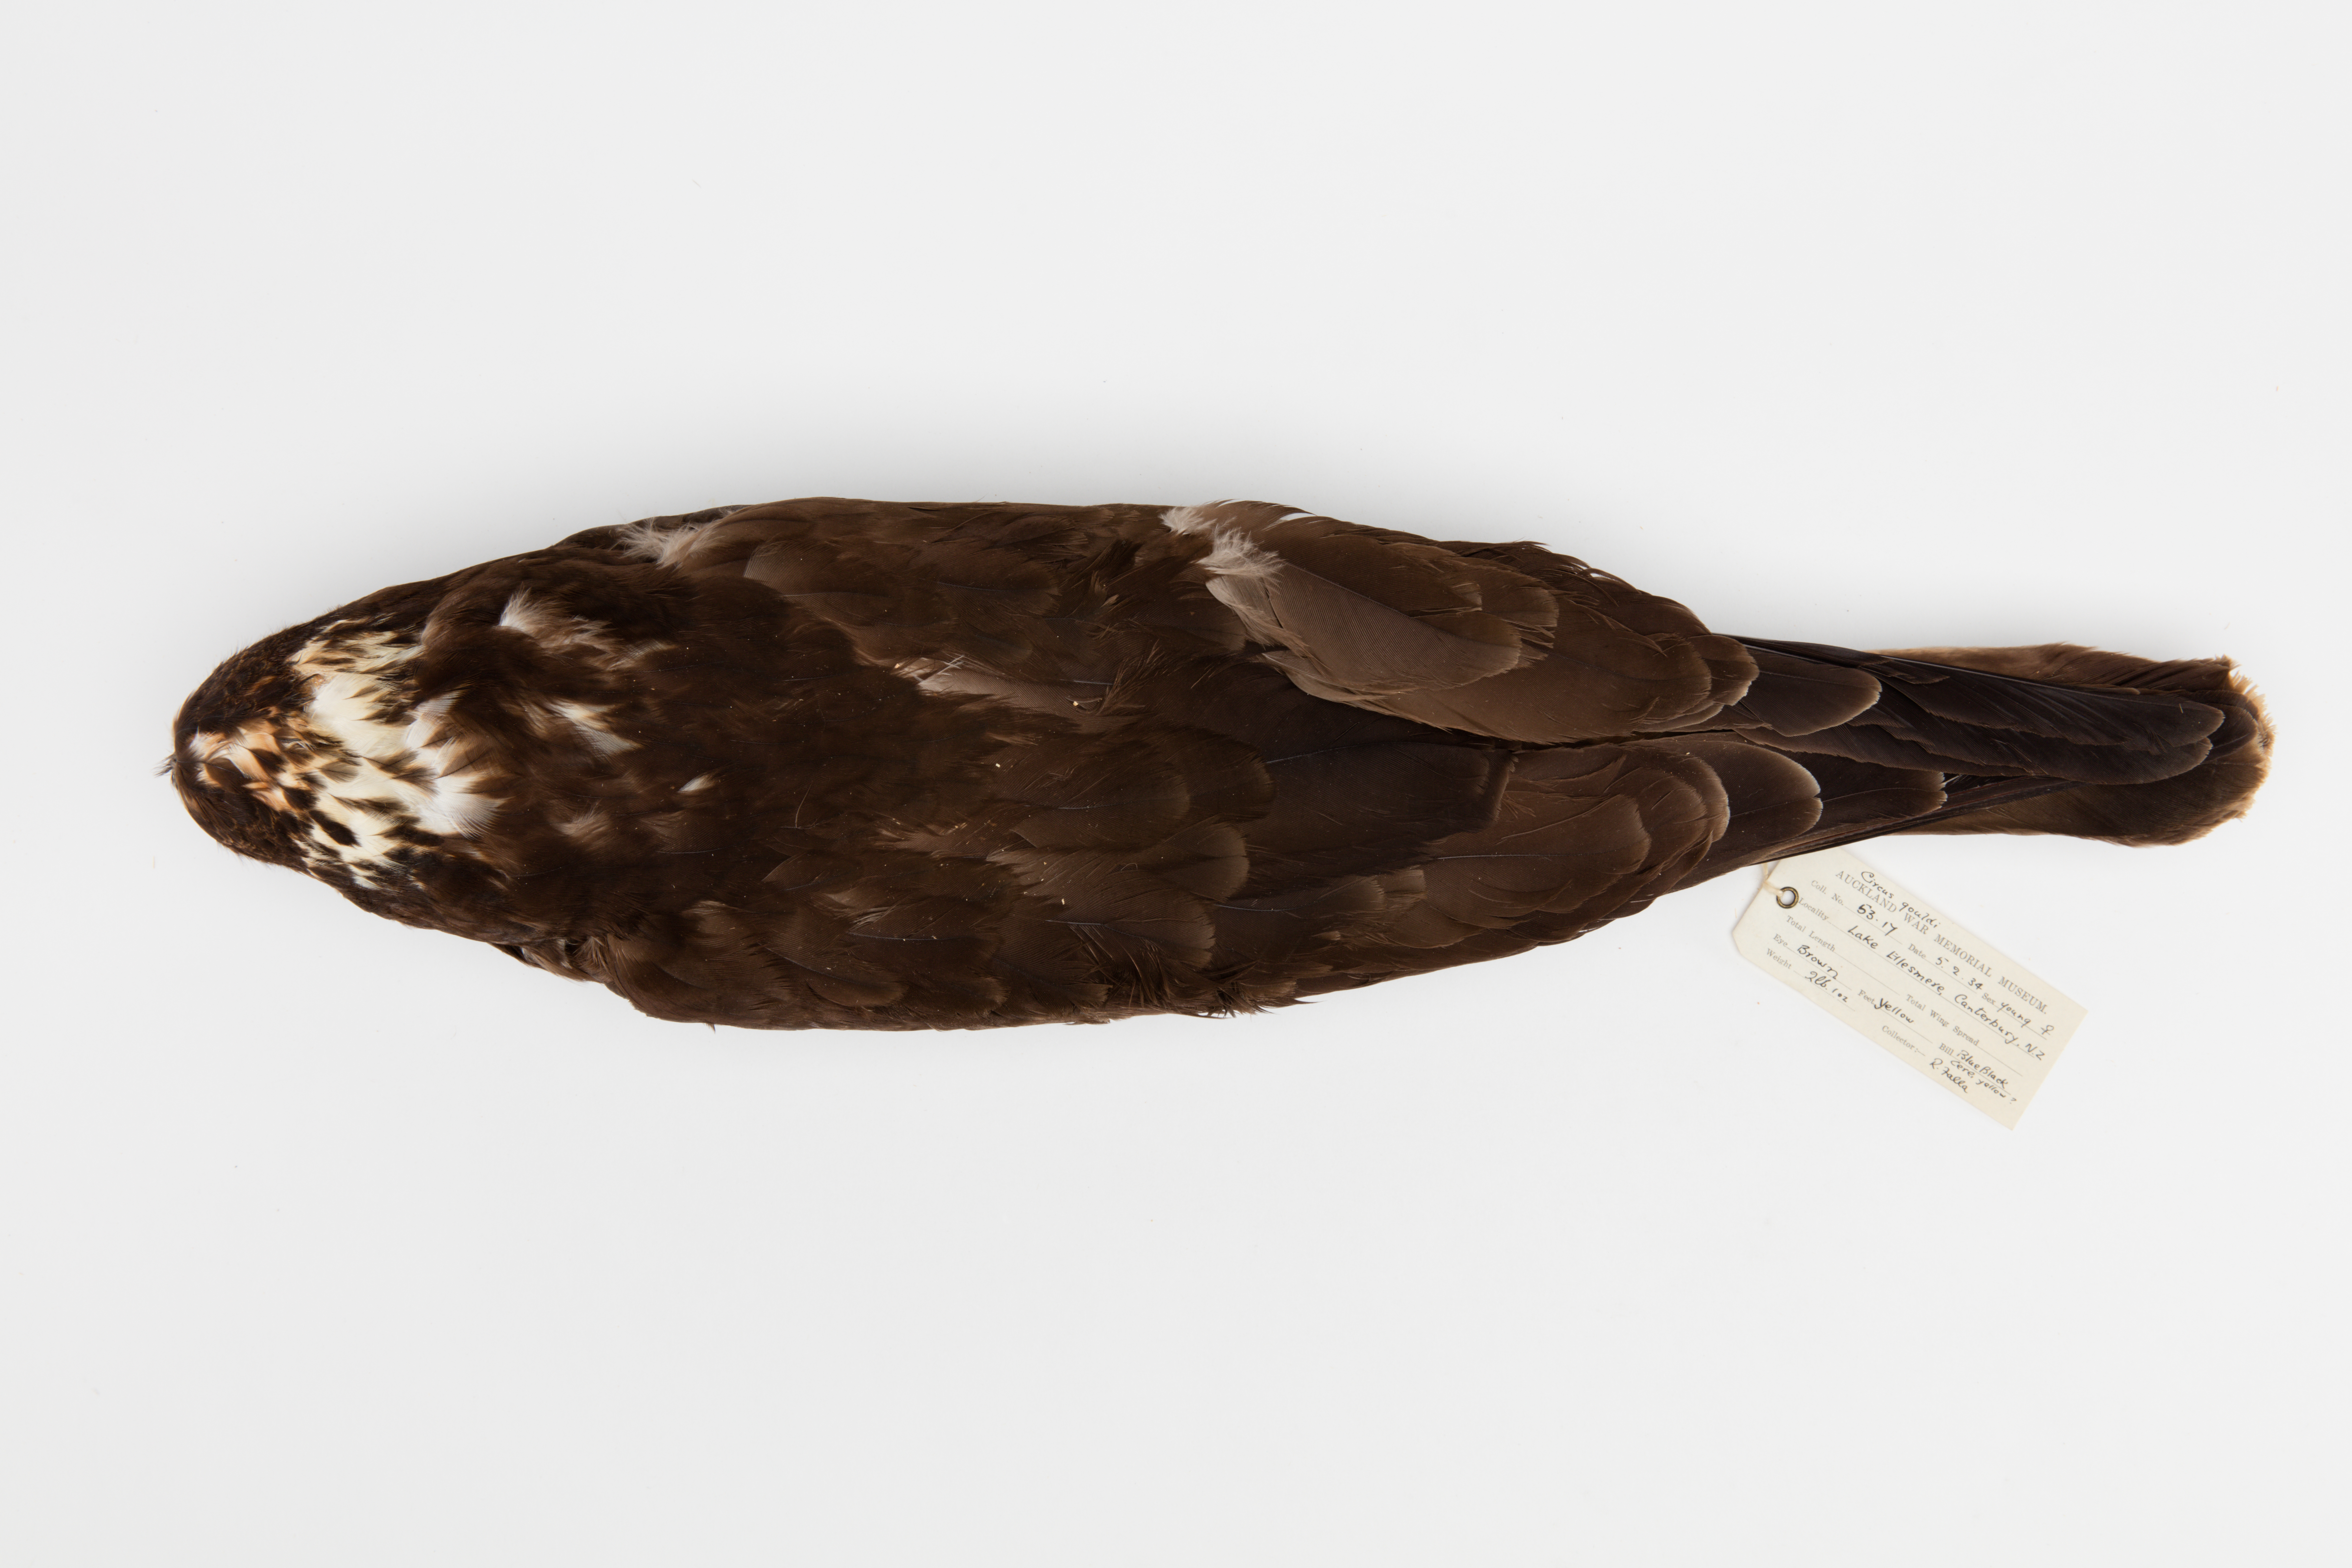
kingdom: Animalia
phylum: Chordata
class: Aves
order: Accipitriformes
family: Accipitridae
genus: Circus
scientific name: Circus approximans
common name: Swamp harrier
